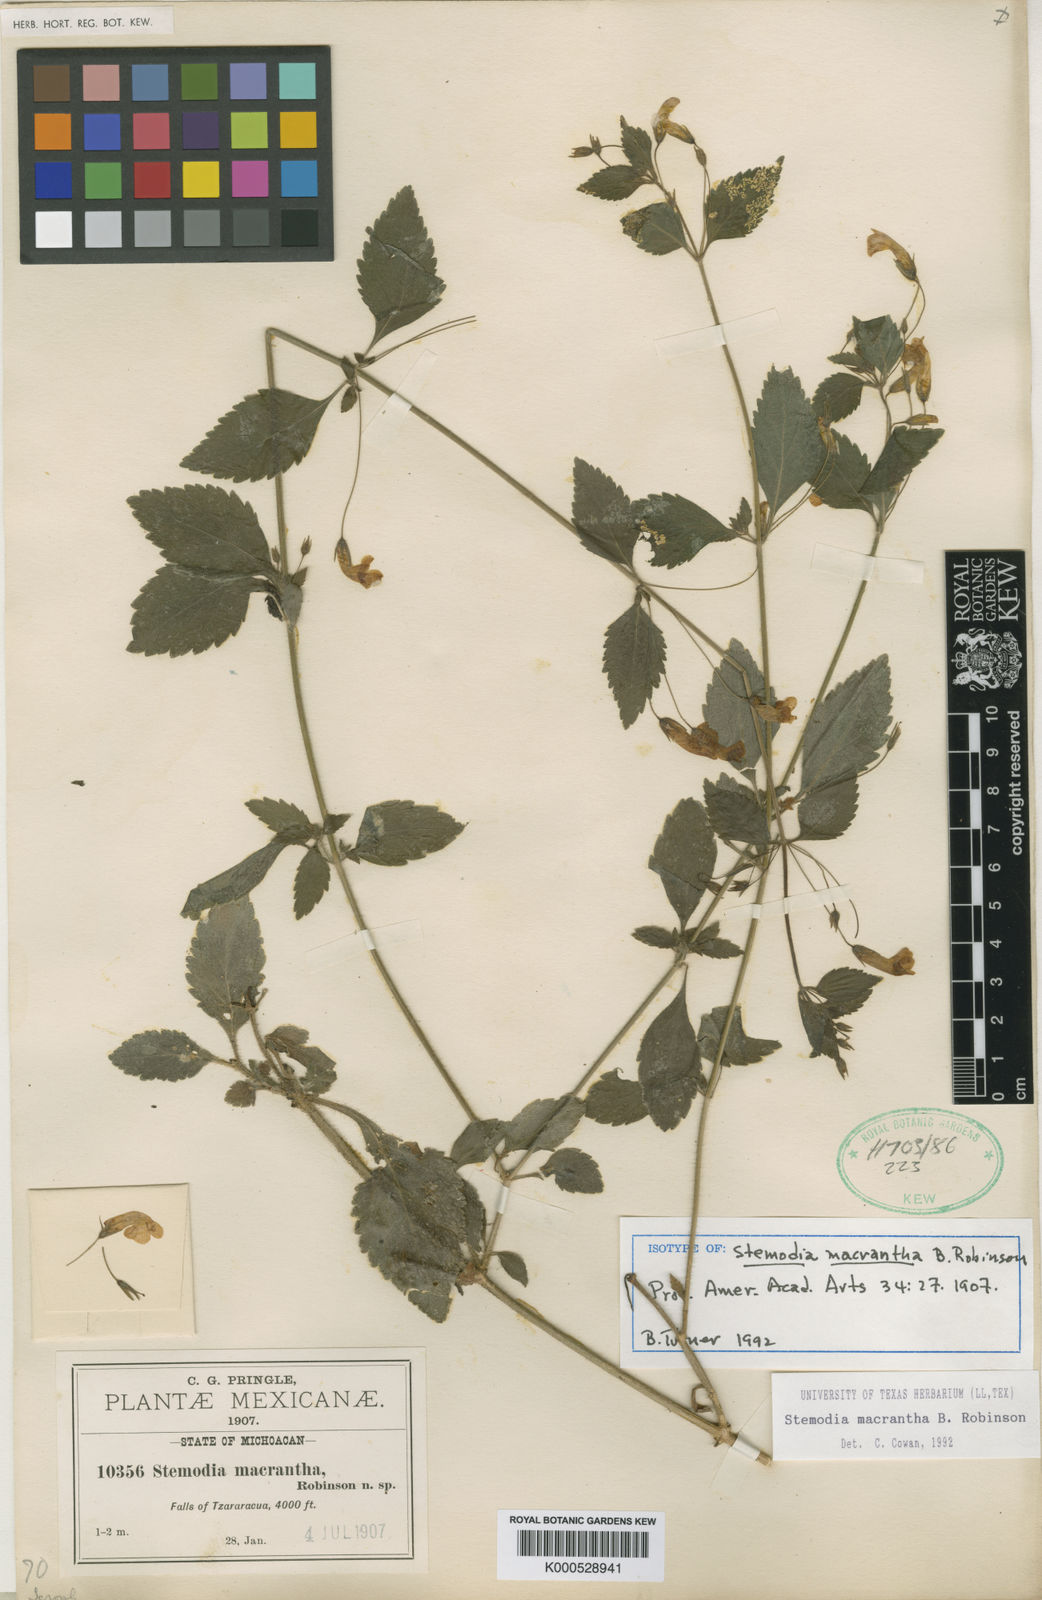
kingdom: Plantae
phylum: Tracheophyta
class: Magnoliopsida
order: Lamiales
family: Plantaginaceae
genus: Stemodia
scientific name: Stemodia macrantha
